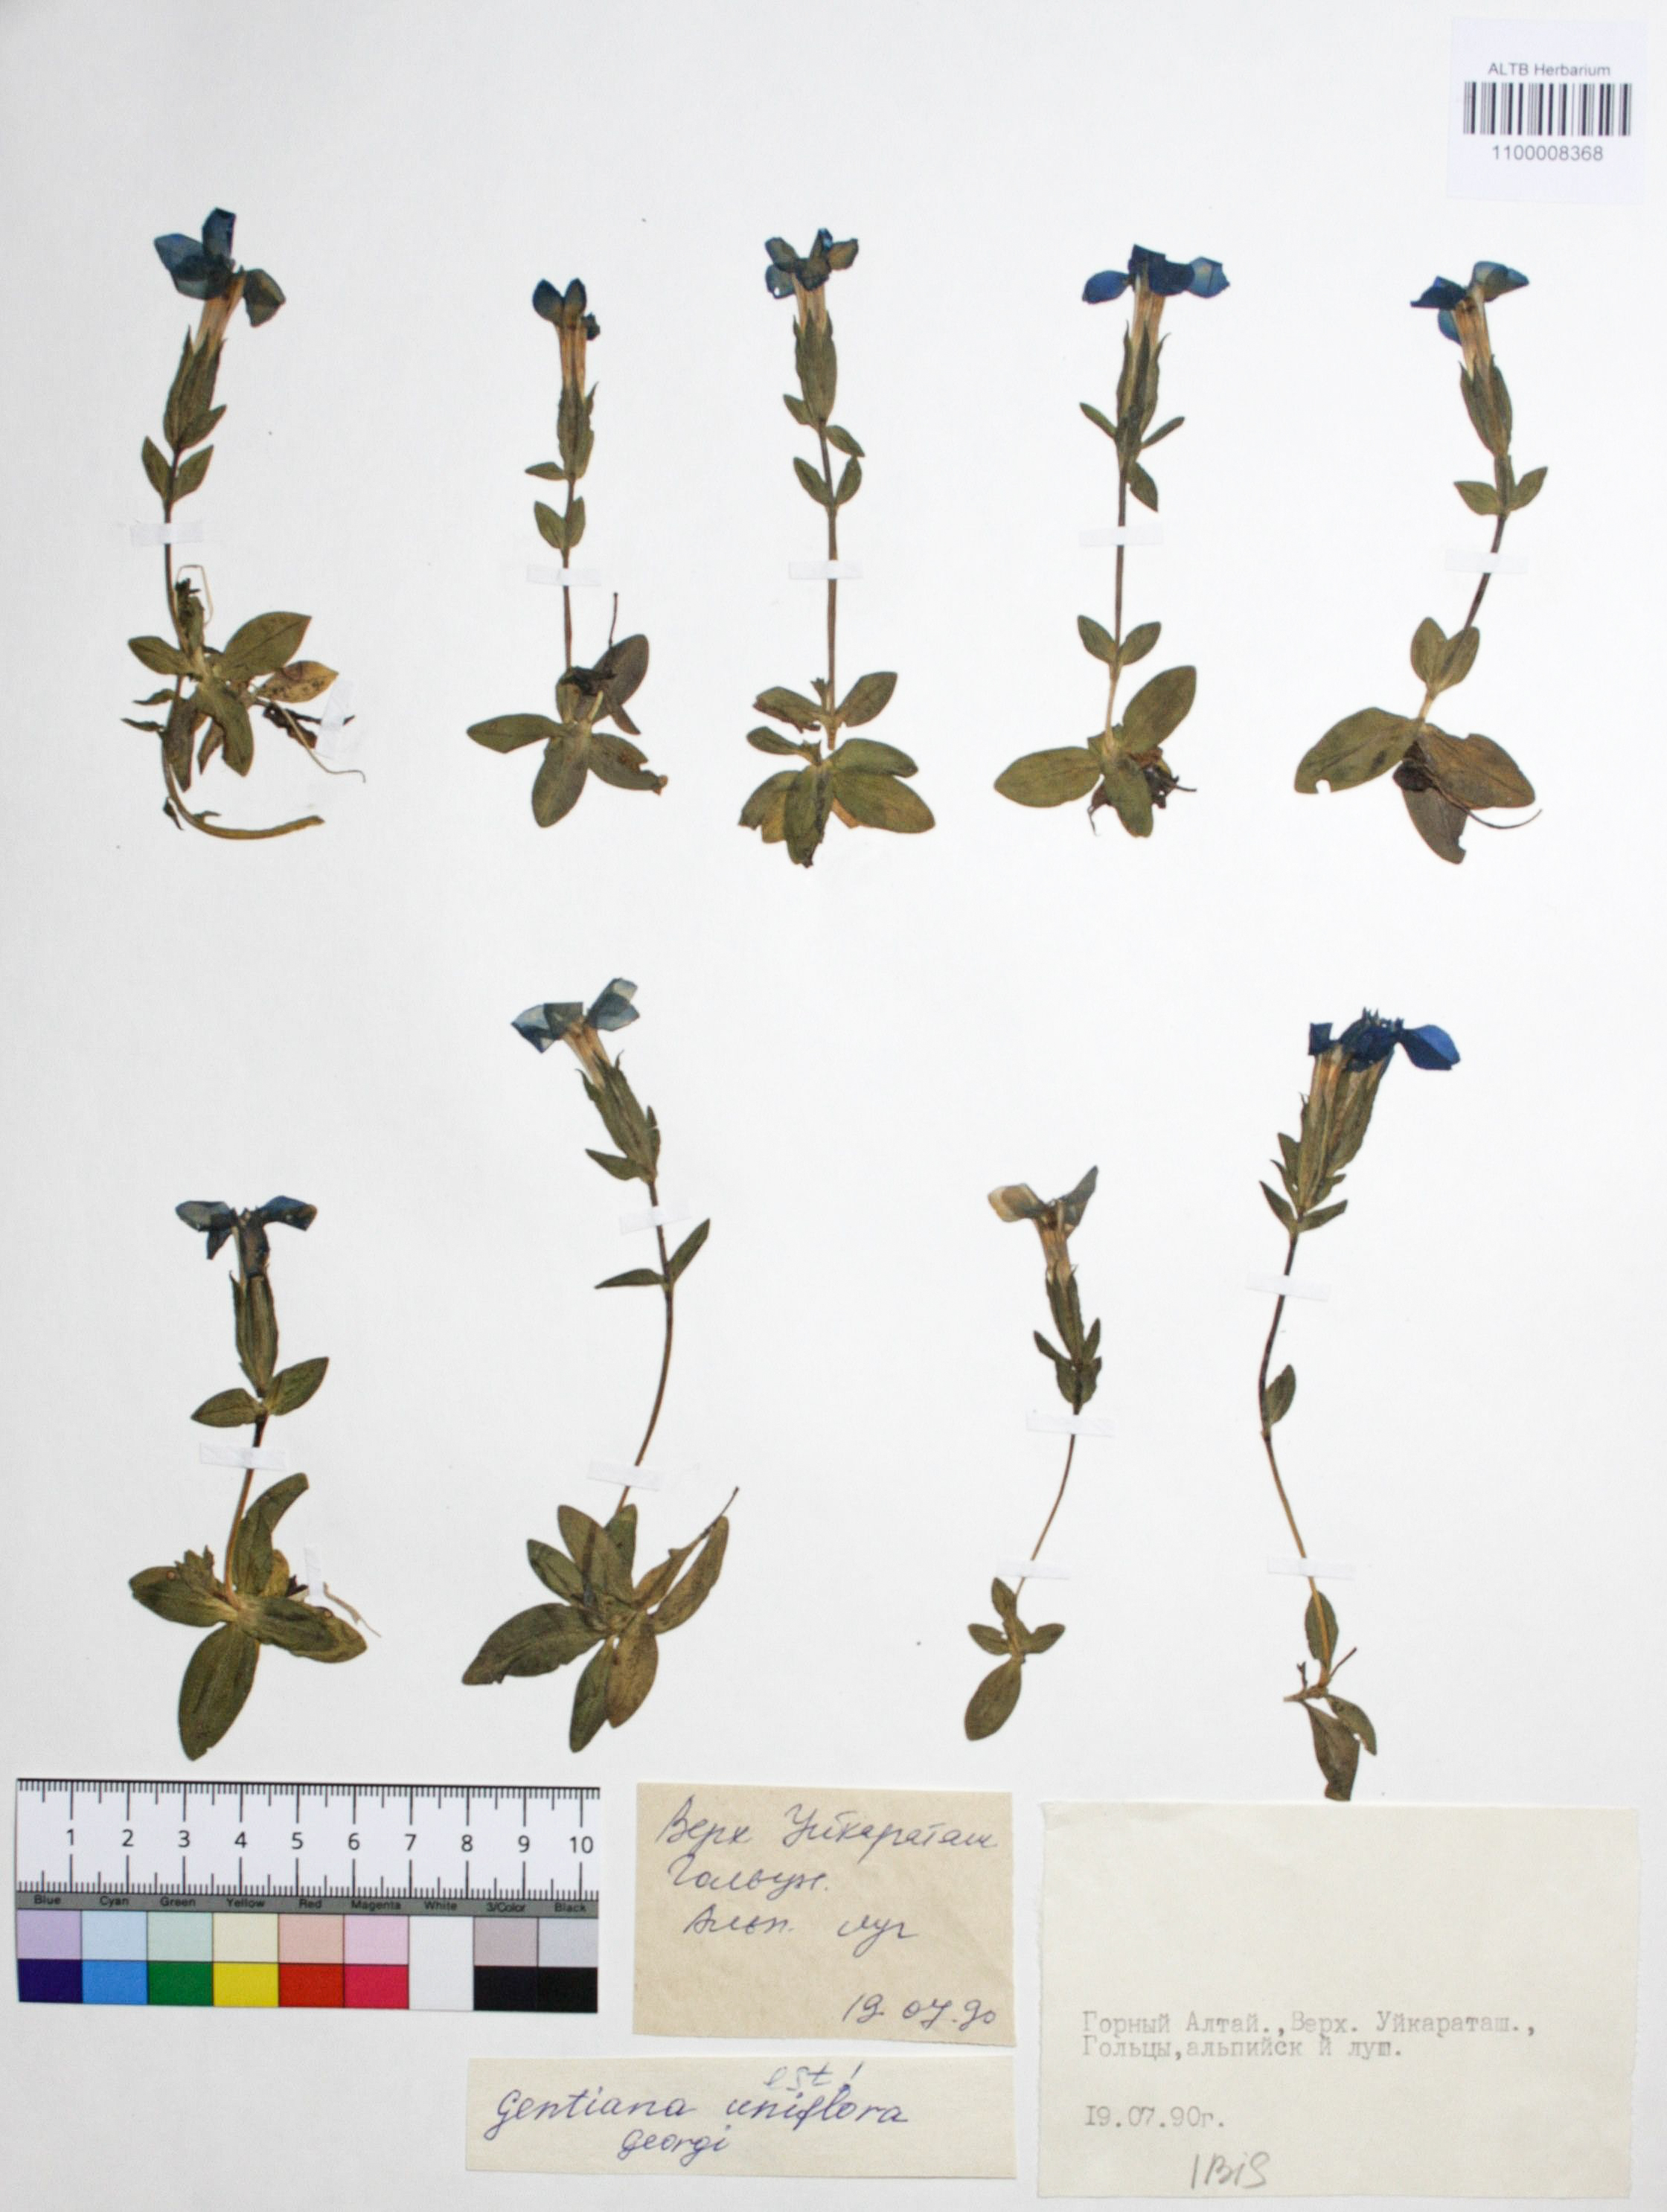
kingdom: Plantae
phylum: Tracheophyta
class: Magnoliopsida
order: Gentianales
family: Gentianaceae
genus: Gentiana
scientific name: Gentiana uniflora
